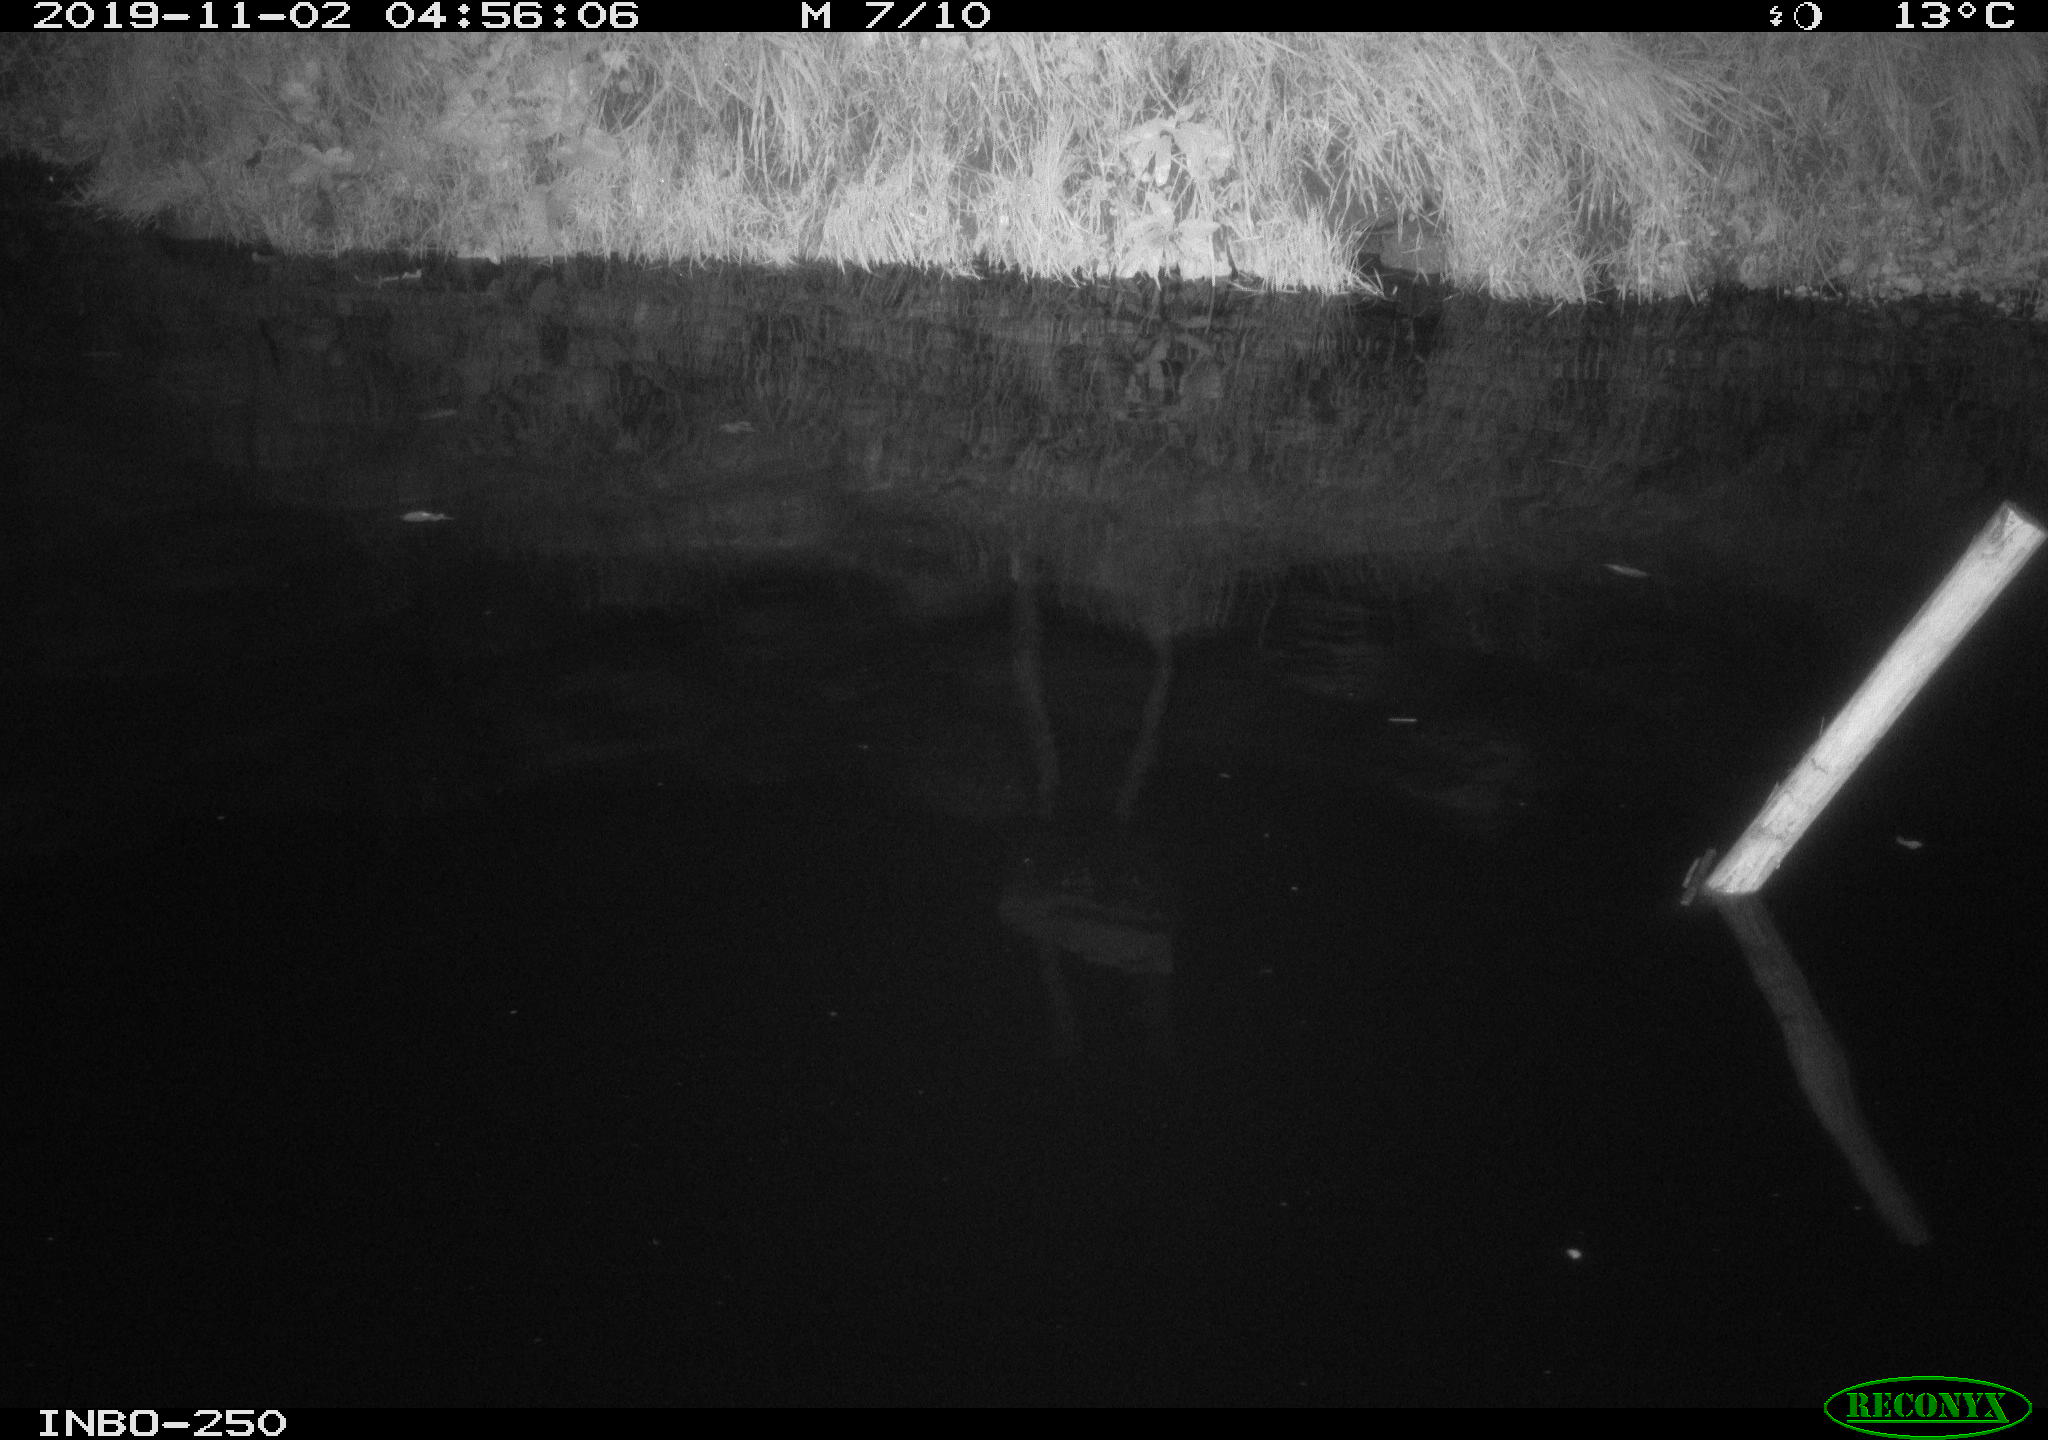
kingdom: Animalia
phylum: Chordata
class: Aves
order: Anseriformes
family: Anatidae
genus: Anas
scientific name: Anas platyrhynchos
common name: Mallard
